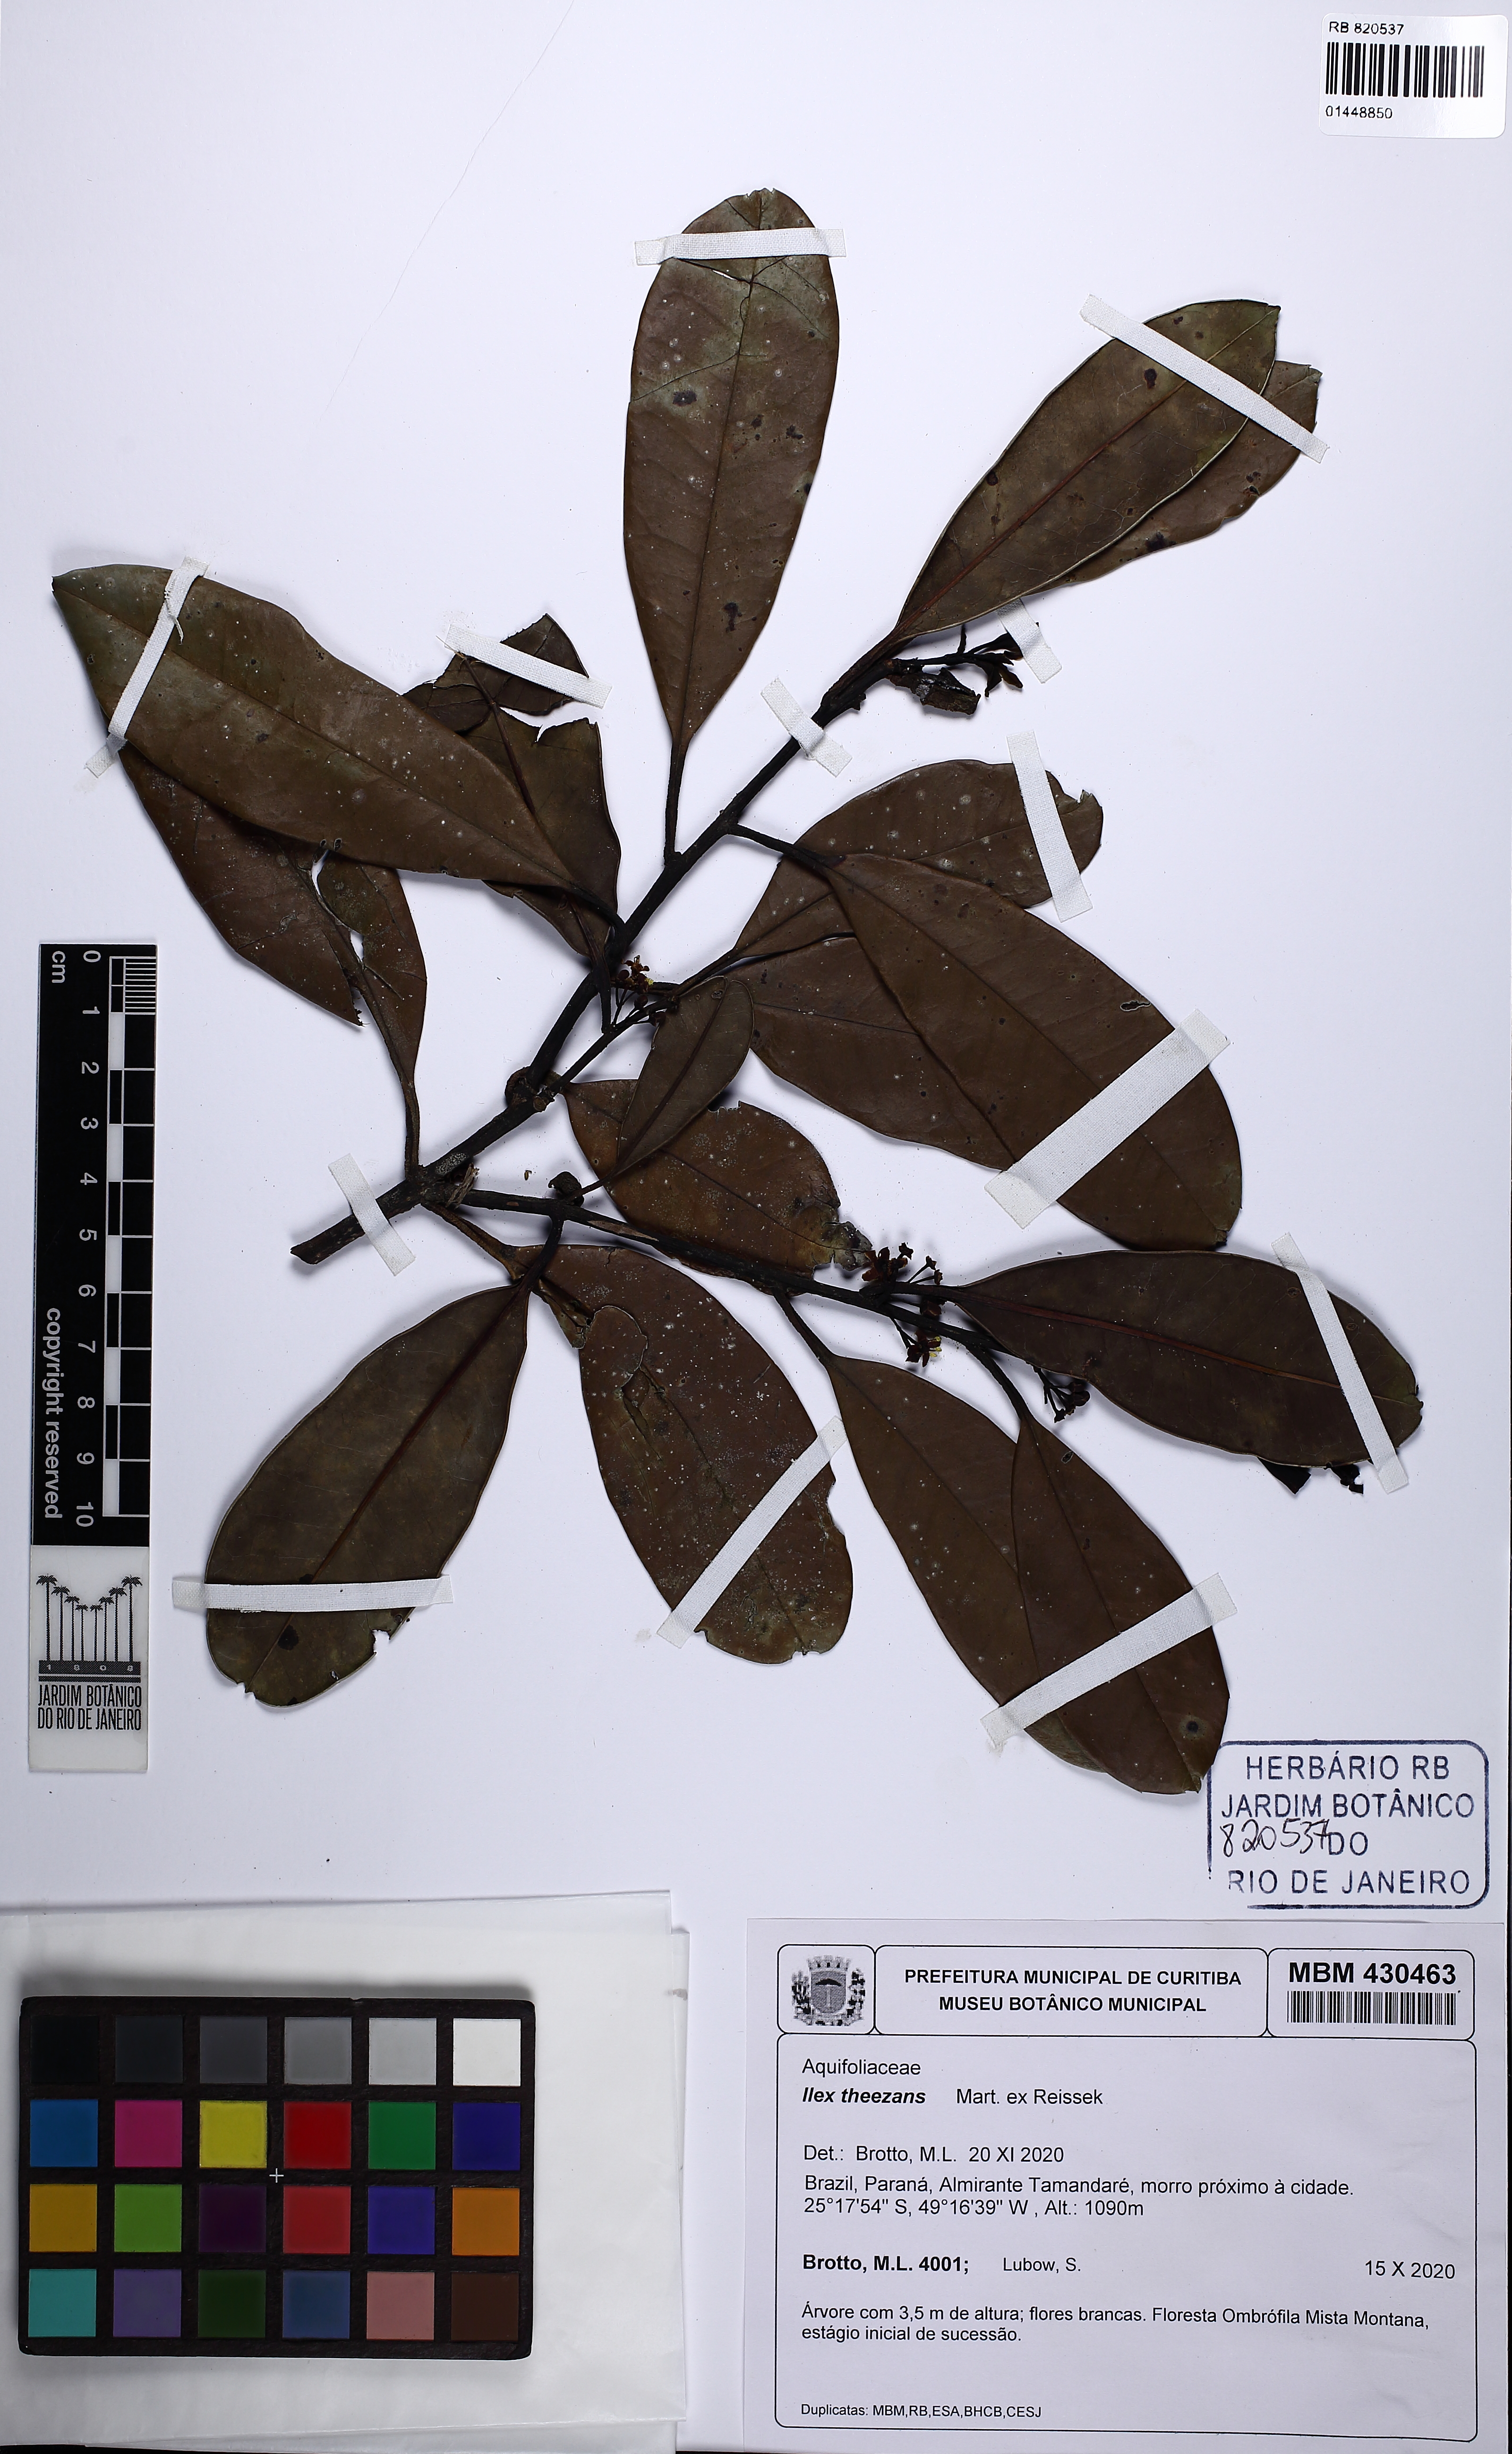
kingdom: Plantae
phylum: Tracheophyta
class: Magnoliopsida
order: Aquifoliales
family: Aquifoliaceae
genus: Ilex
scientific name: Ilex theezans
